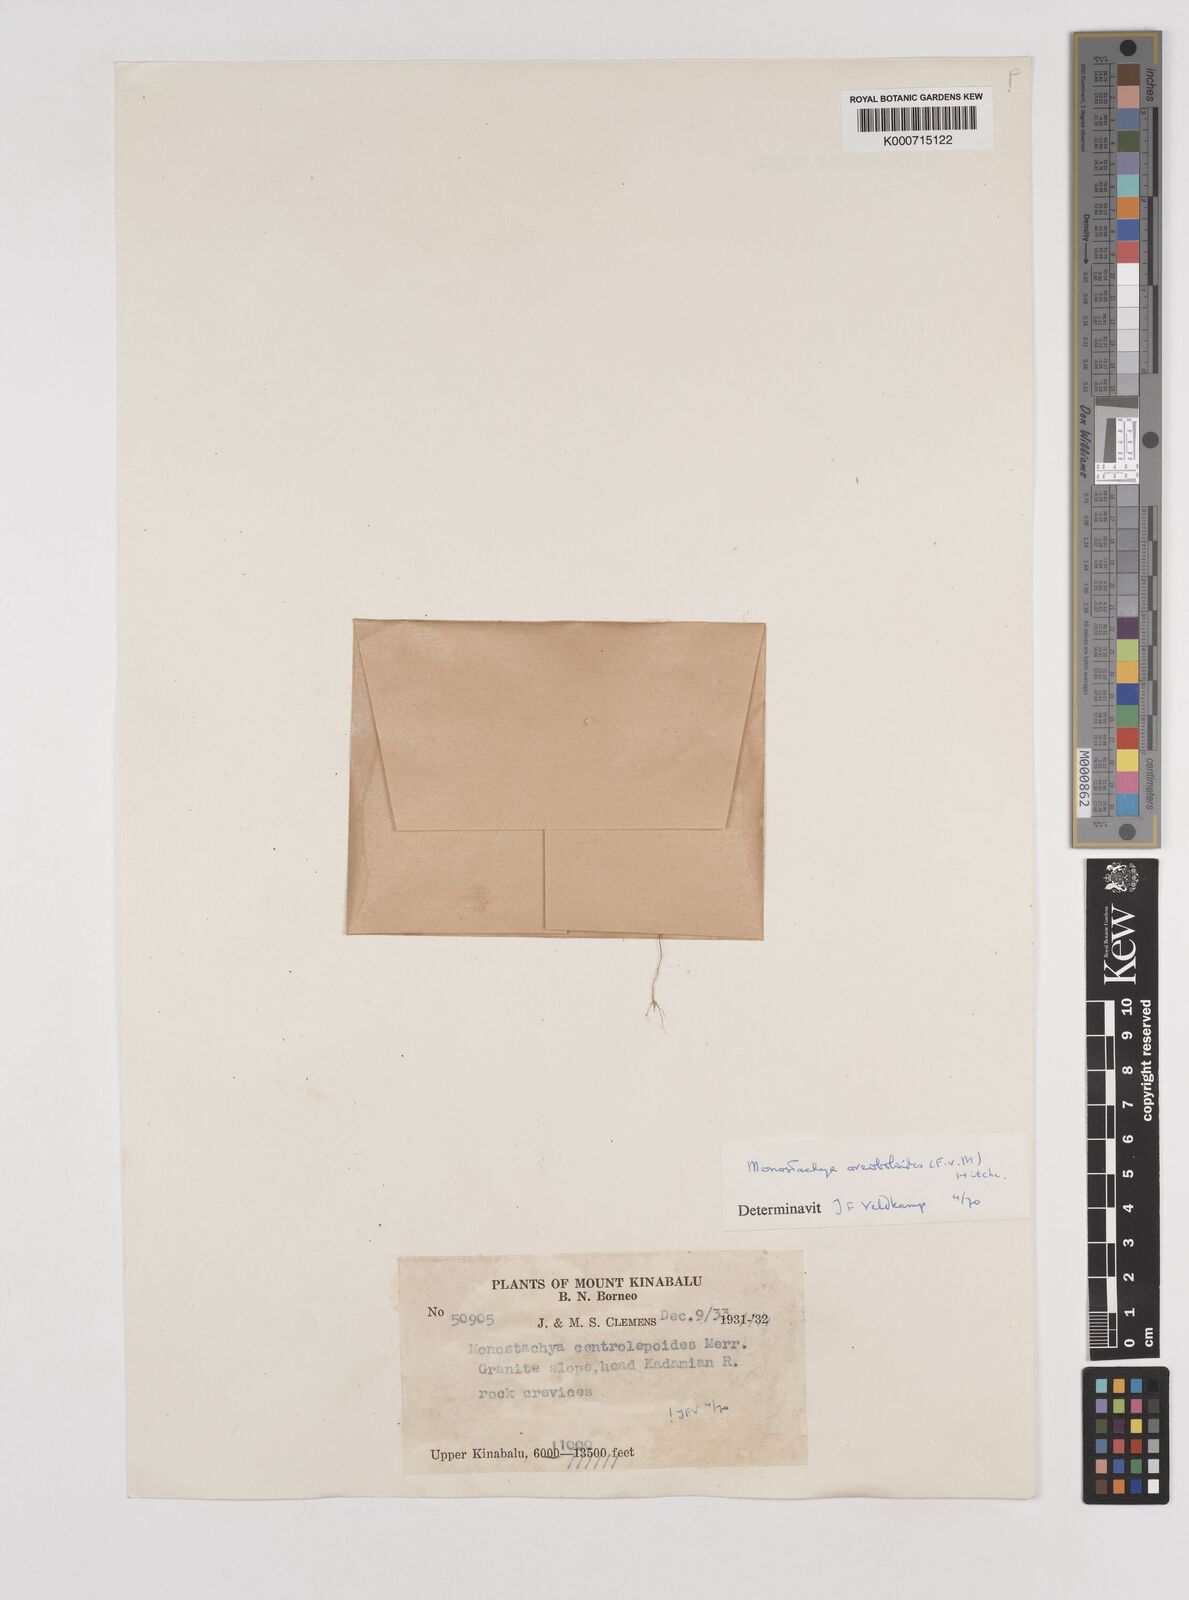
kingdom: Plantae
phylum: Tracheophyta
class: Liliopsida
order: Poales
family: Poaceae
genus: Rytidosperma
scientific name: Rytidosperma oreoboloides
